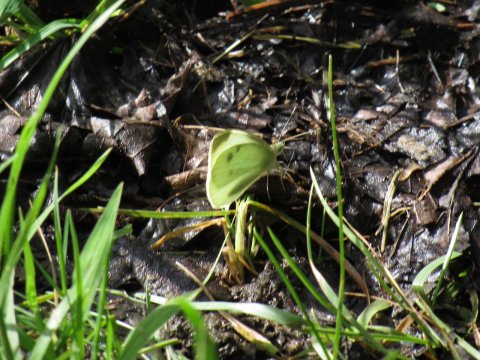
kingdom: Animalia
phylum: Arthropoda
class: Insecta
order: Lepidoptera
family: Pieridae
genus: Pieris
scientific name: Pieris rapae
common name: Cabbage White
